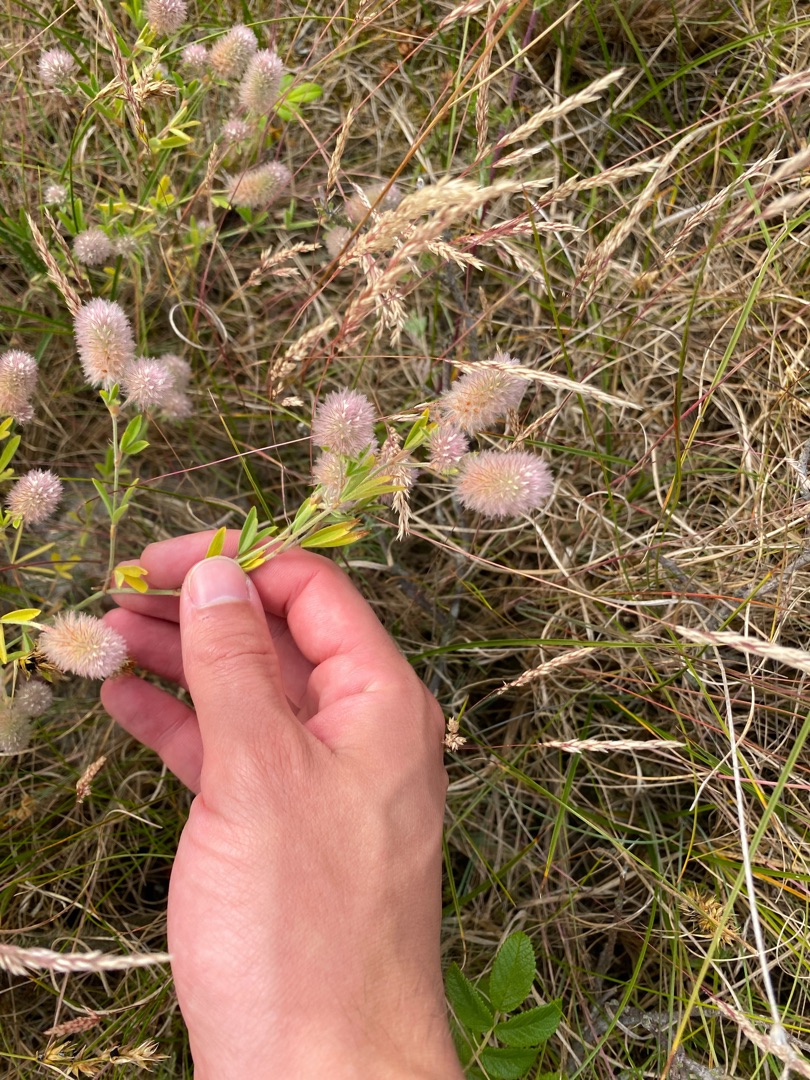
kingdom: Plantae
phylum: Tracheophyta
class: Magnoliopsida
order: Fabales
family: Fabaceae
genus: Trifolium
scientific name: Trifolium arvense
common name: Hare-kløver
